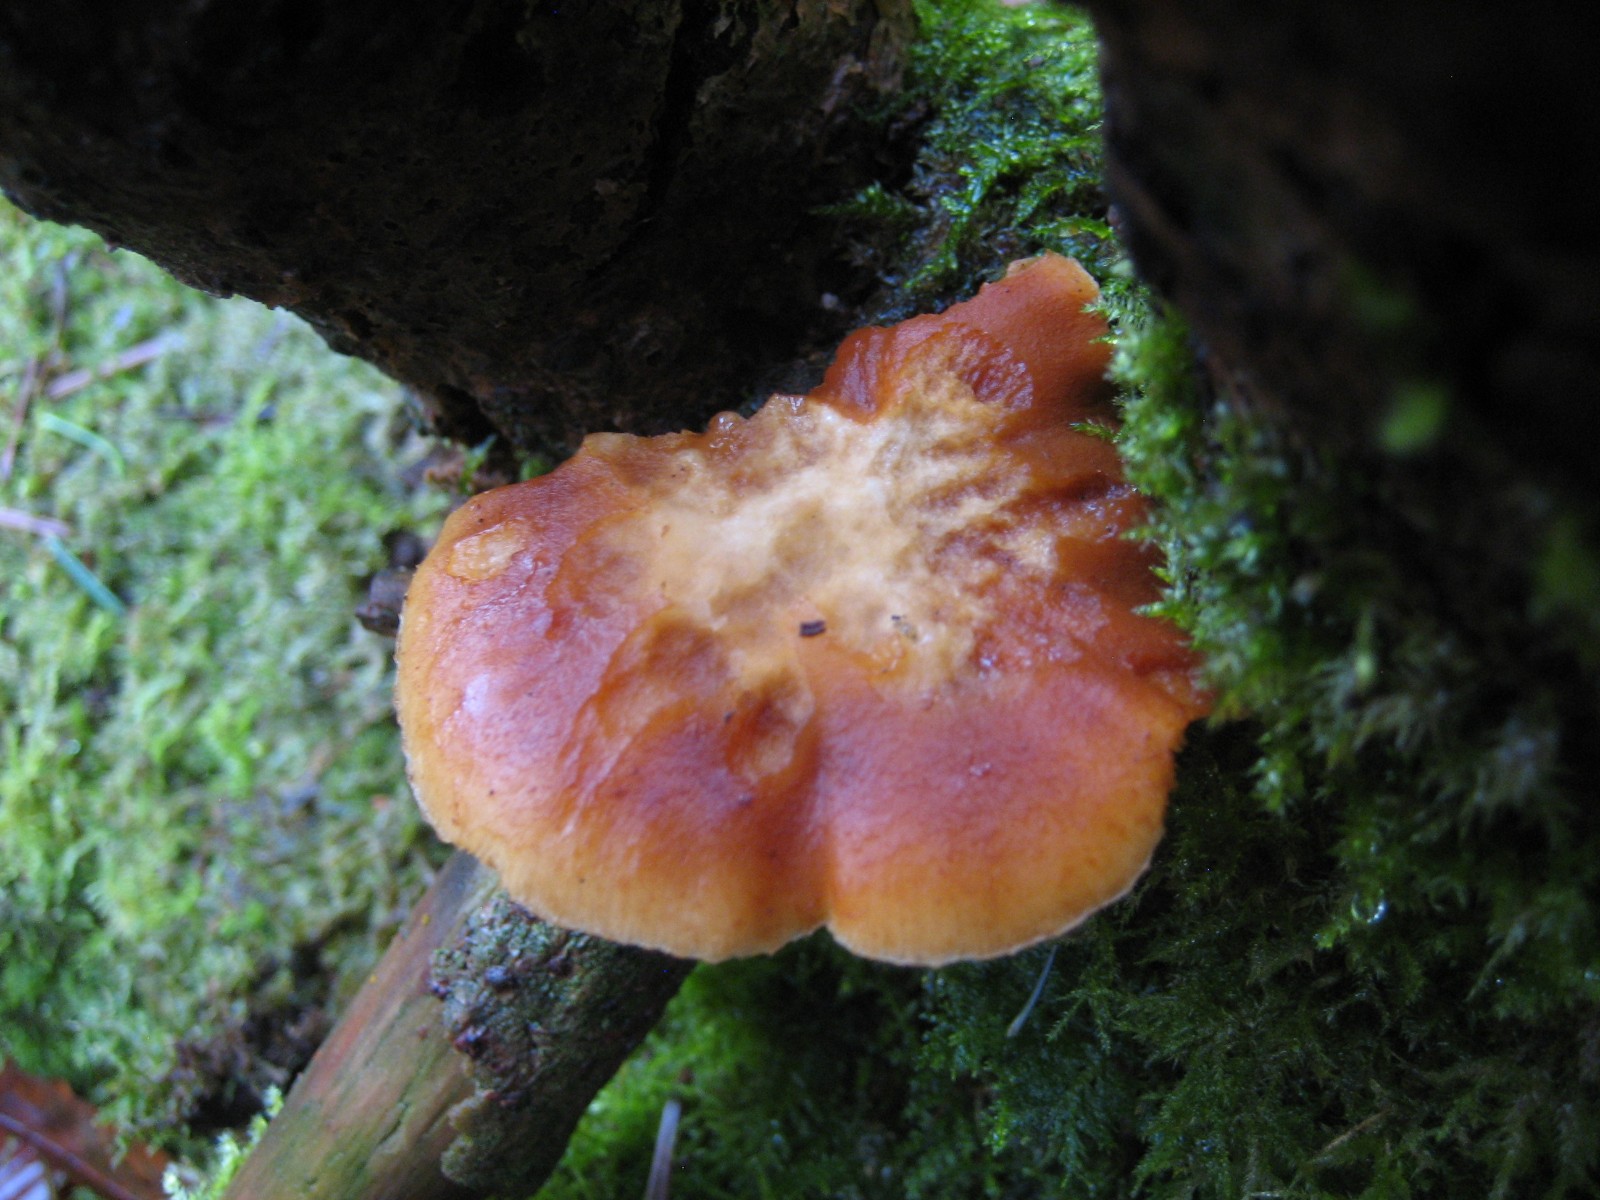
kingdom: Fungi
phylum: Basidiomycota
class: Agaricomycetes
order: Agaricales
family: Hymenogastraceae
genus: Gymnopilus
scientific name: Gymnopilus penetrans
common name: plettet flammehat
